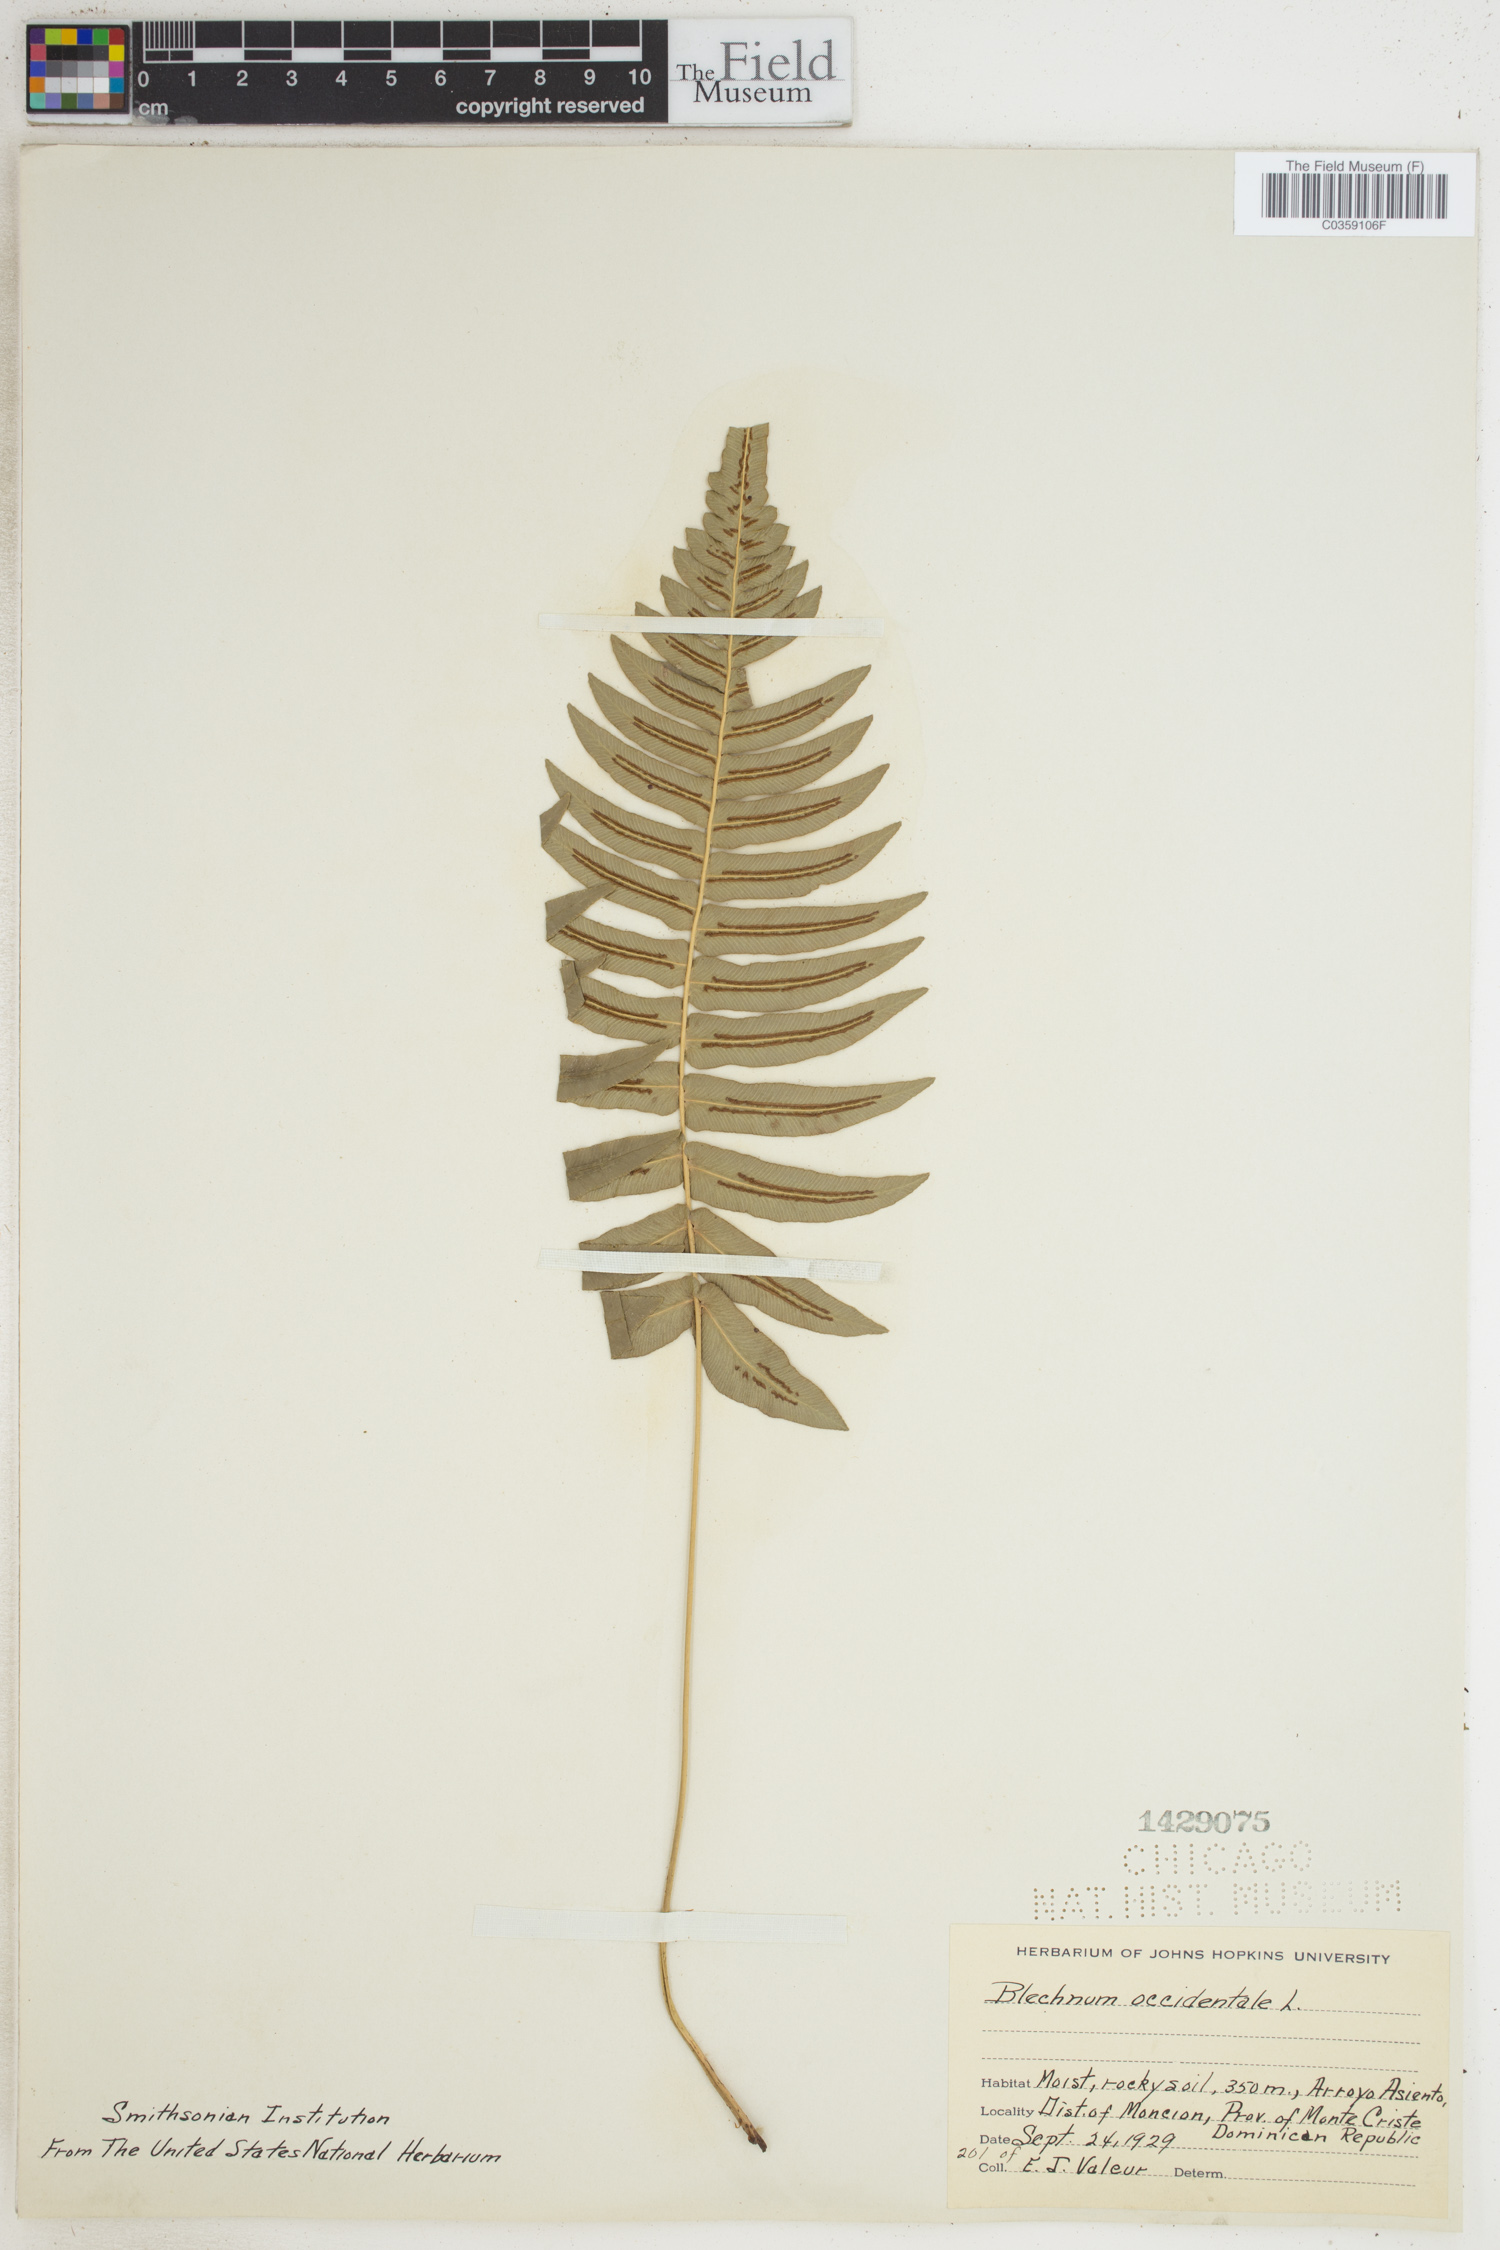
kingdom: Plantae
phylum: Tracheophyta
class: Polypodiopsida
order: Polypodiales
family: Blechnaceae
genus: Blechnum
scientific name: Blechnum occidentale
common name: Hammock fern
